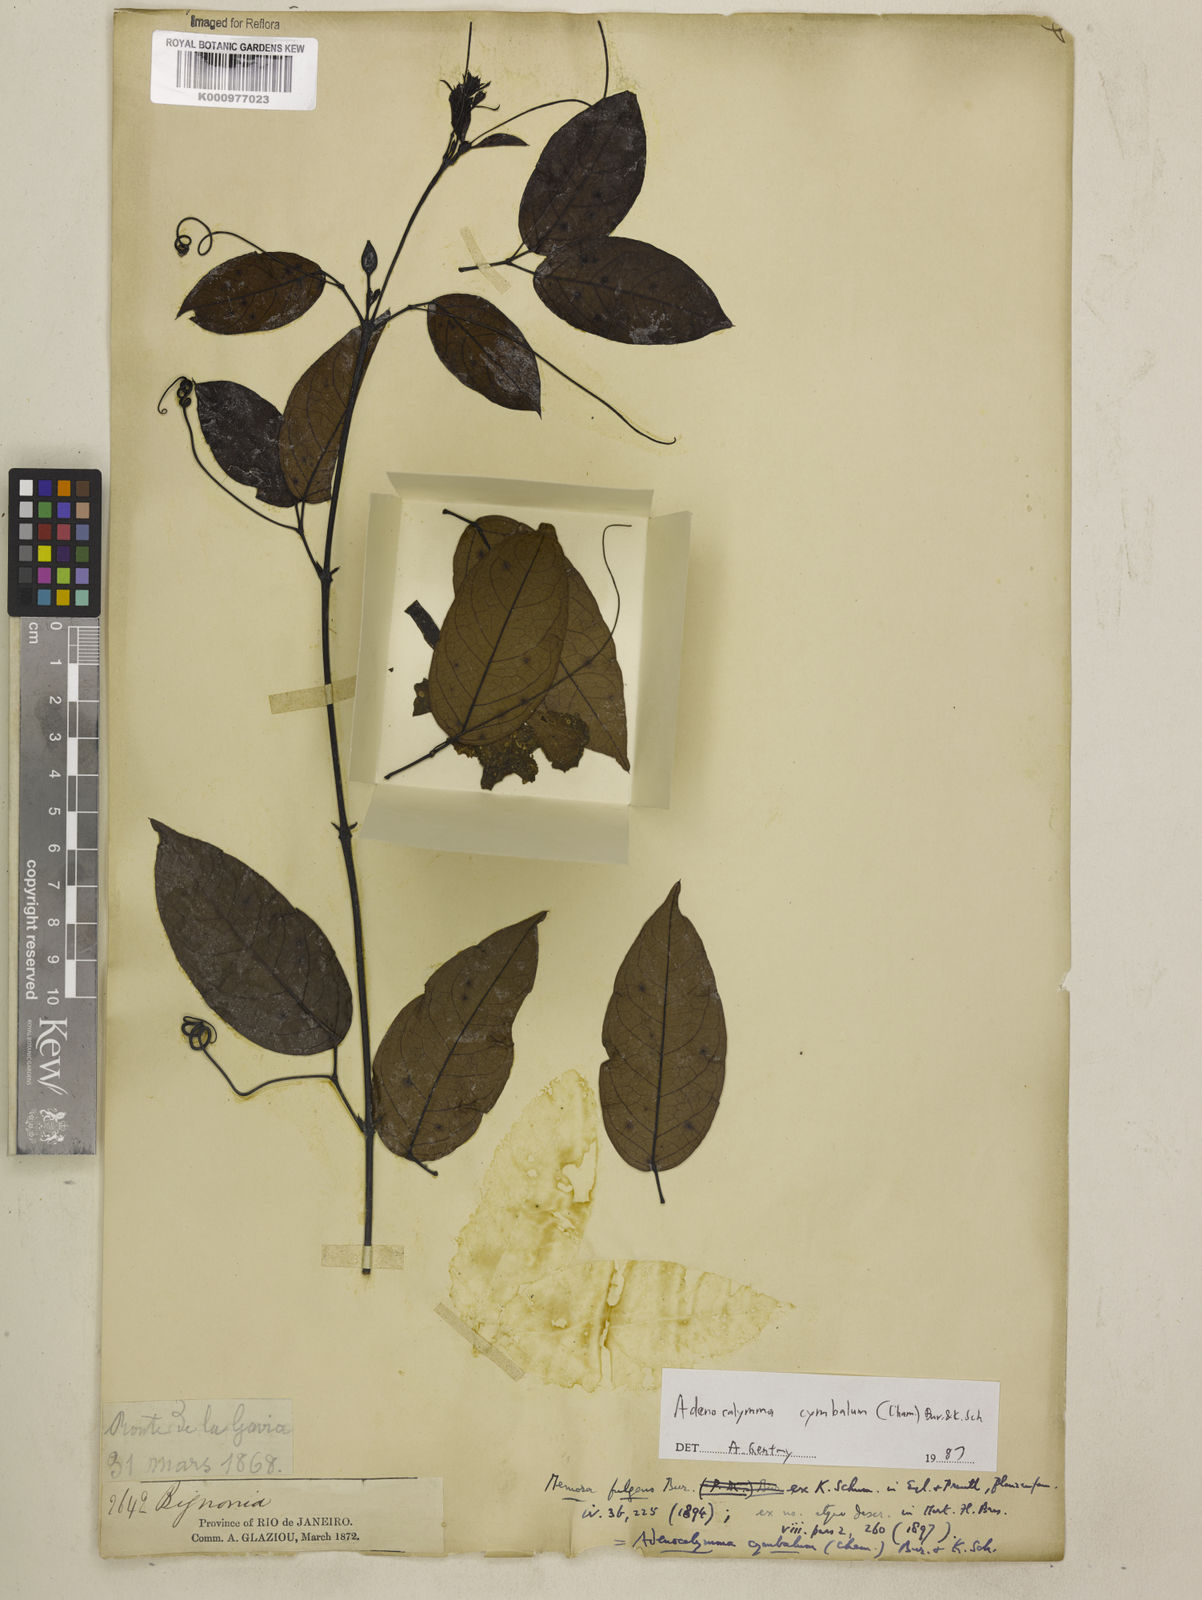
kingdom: Plantae
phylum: Tracheophyta
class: Magnoliopsida
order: Lamiales
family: Bignoniaceae
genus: Adenocalymma
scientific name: Adenocalymma cymbalum
